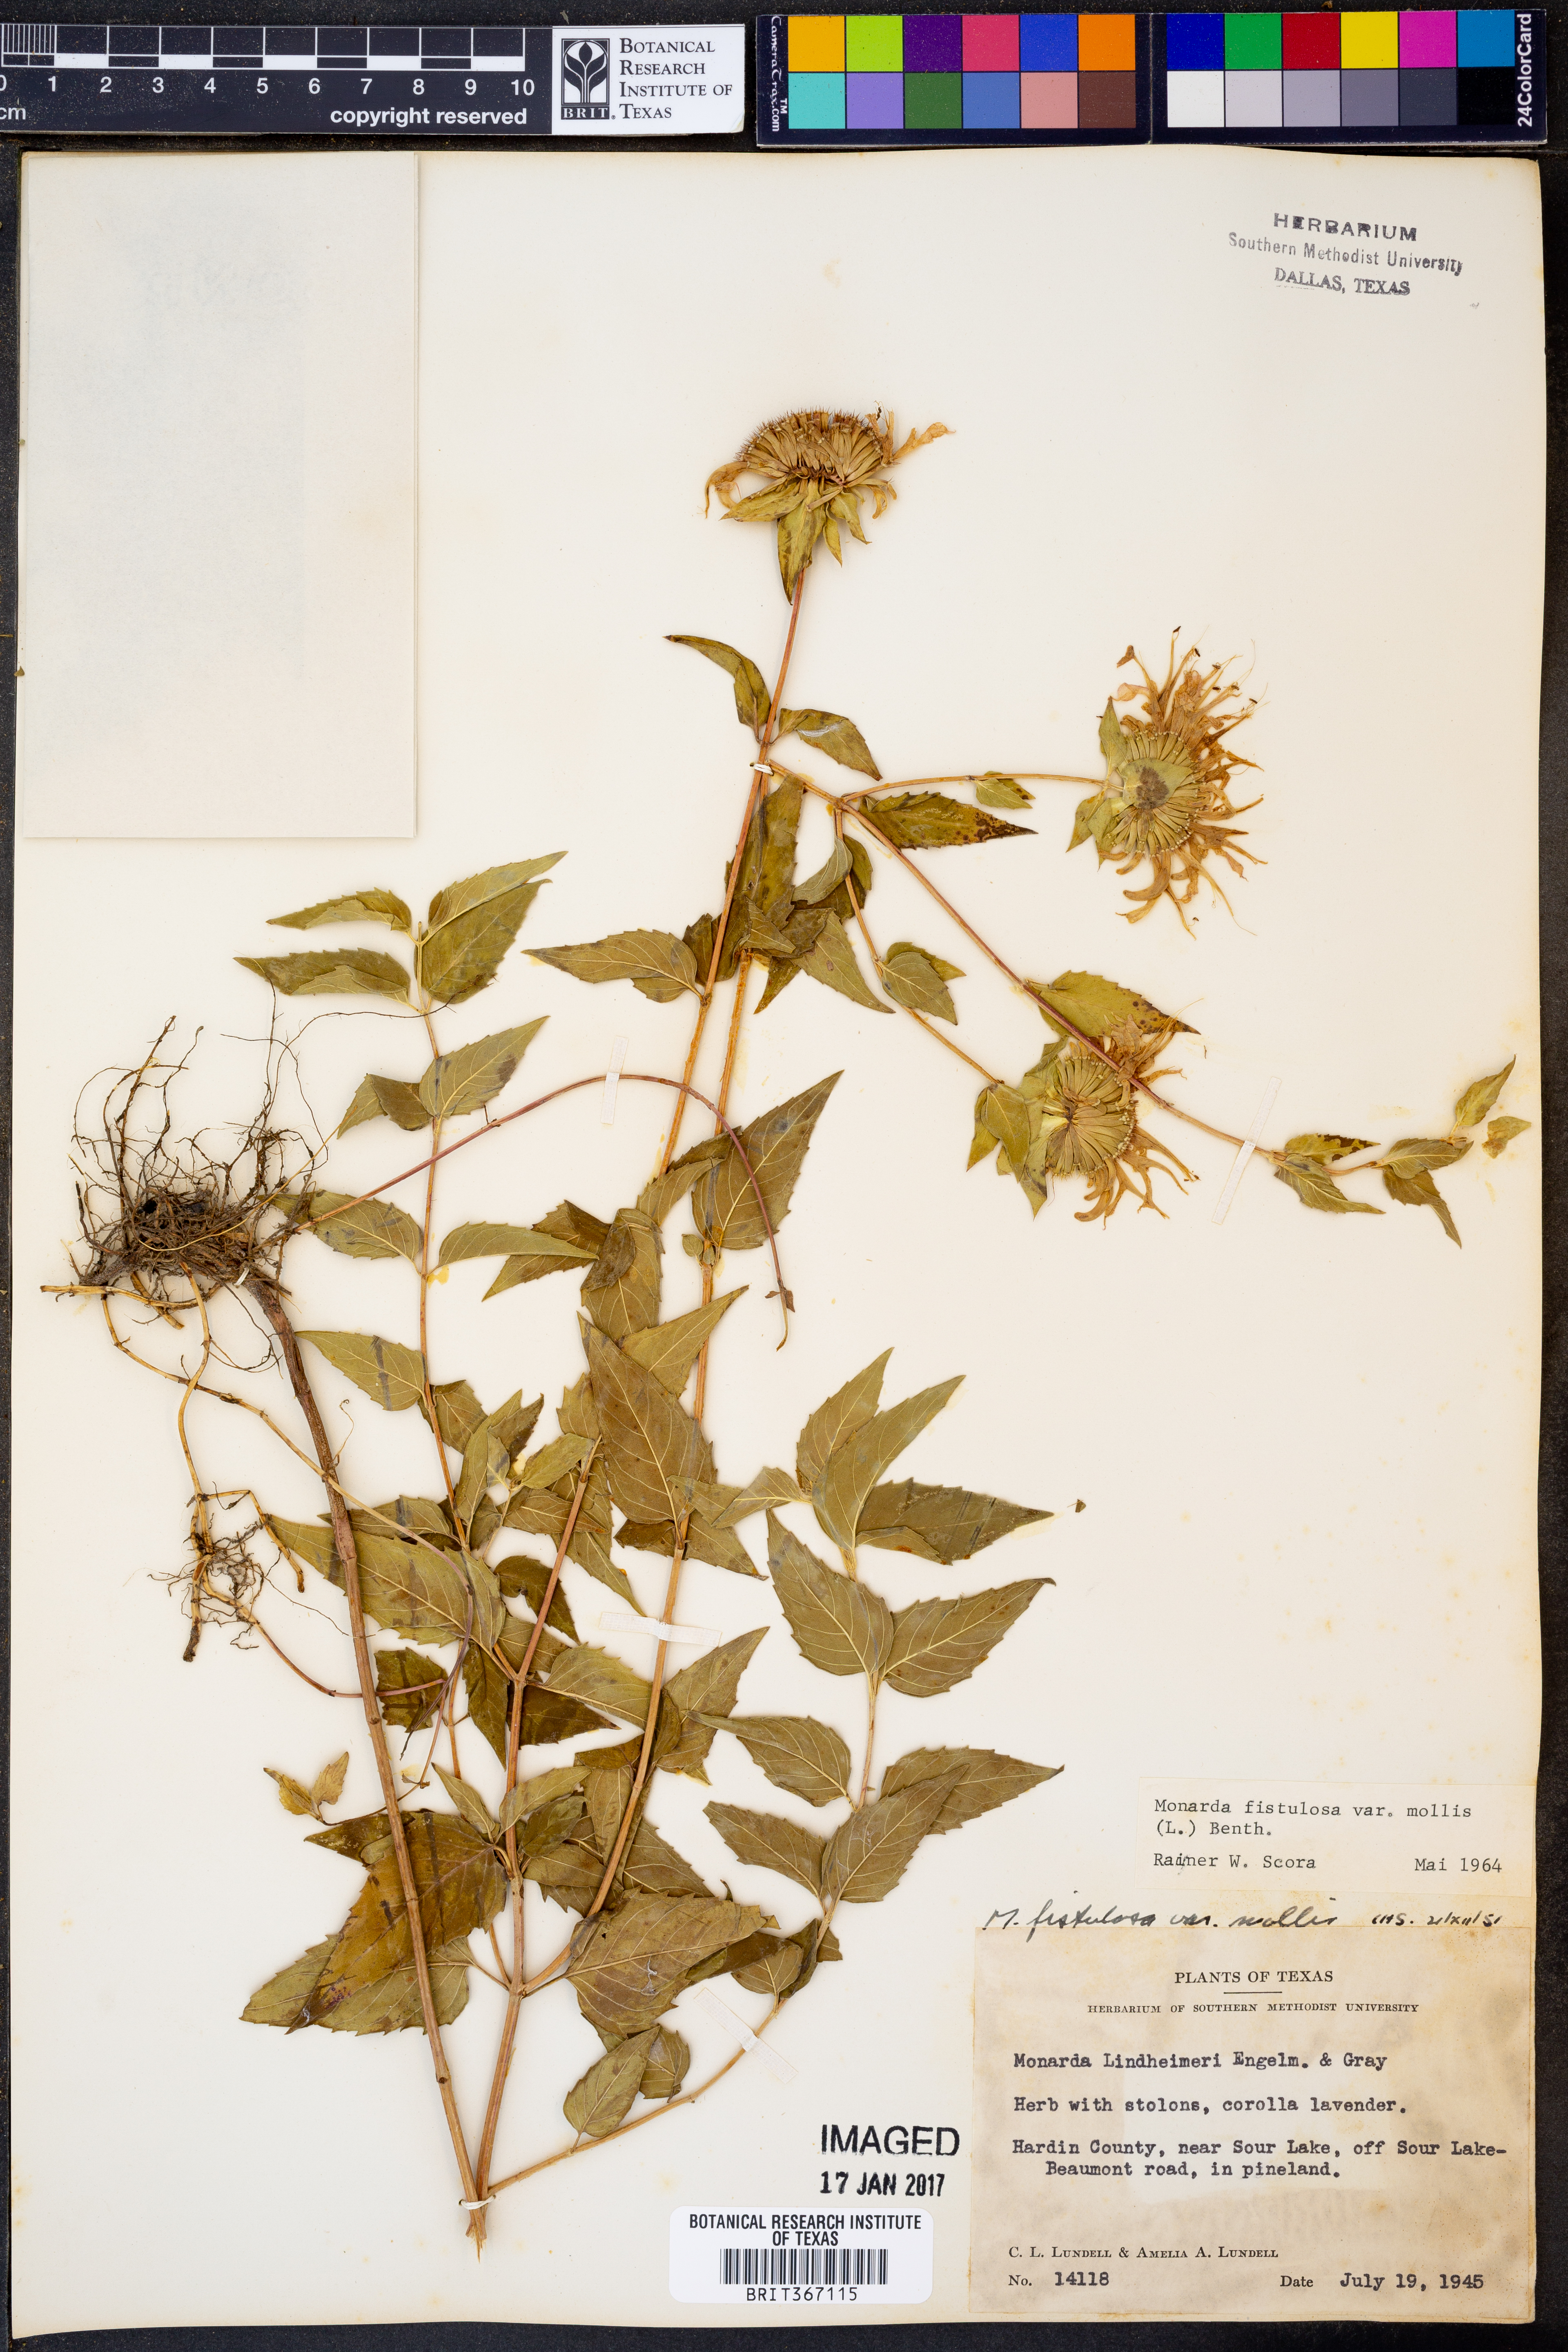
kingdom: Plantae
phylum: Tracheophyta
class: Magnoliopsida
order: Lamiales
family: Lamiaceae
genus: Monarda
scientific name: Monarda fistulosa
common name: Purple beebalm
